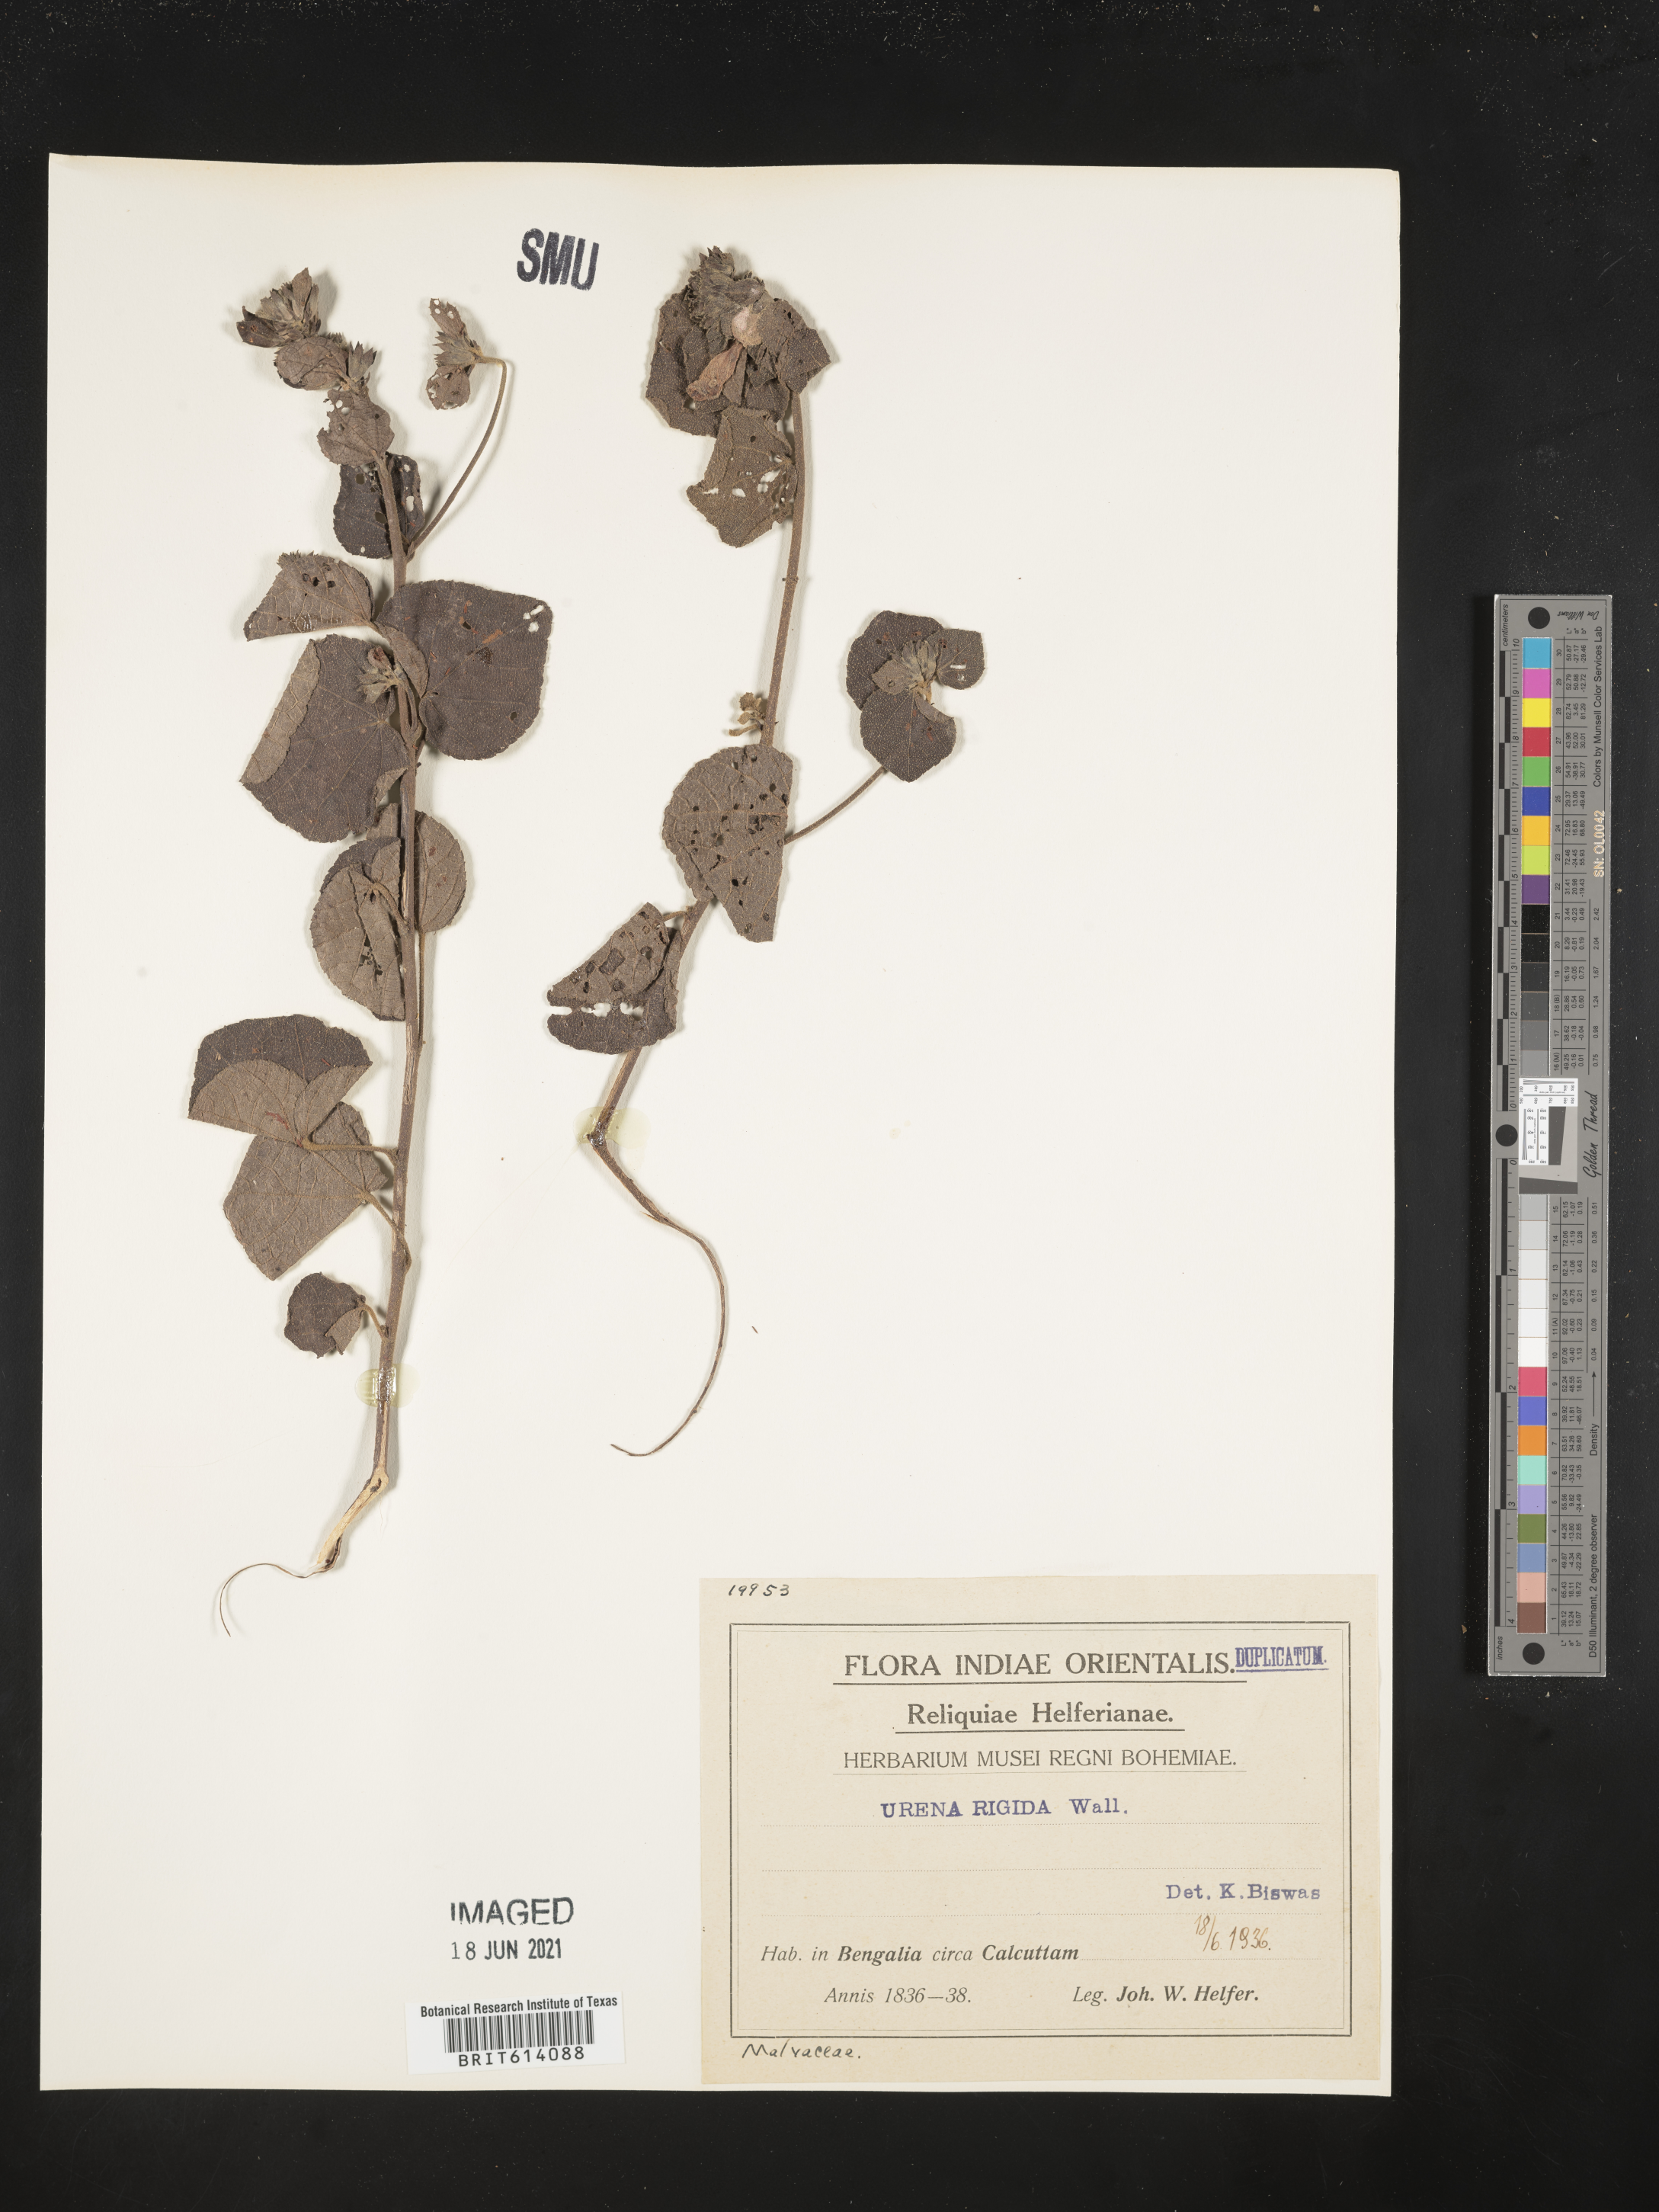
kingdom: Plantae
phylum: Tracheophyta
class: Magnoliopsida
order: Malvales
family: Malvaceae
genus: Urena
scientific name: Urena repanda
